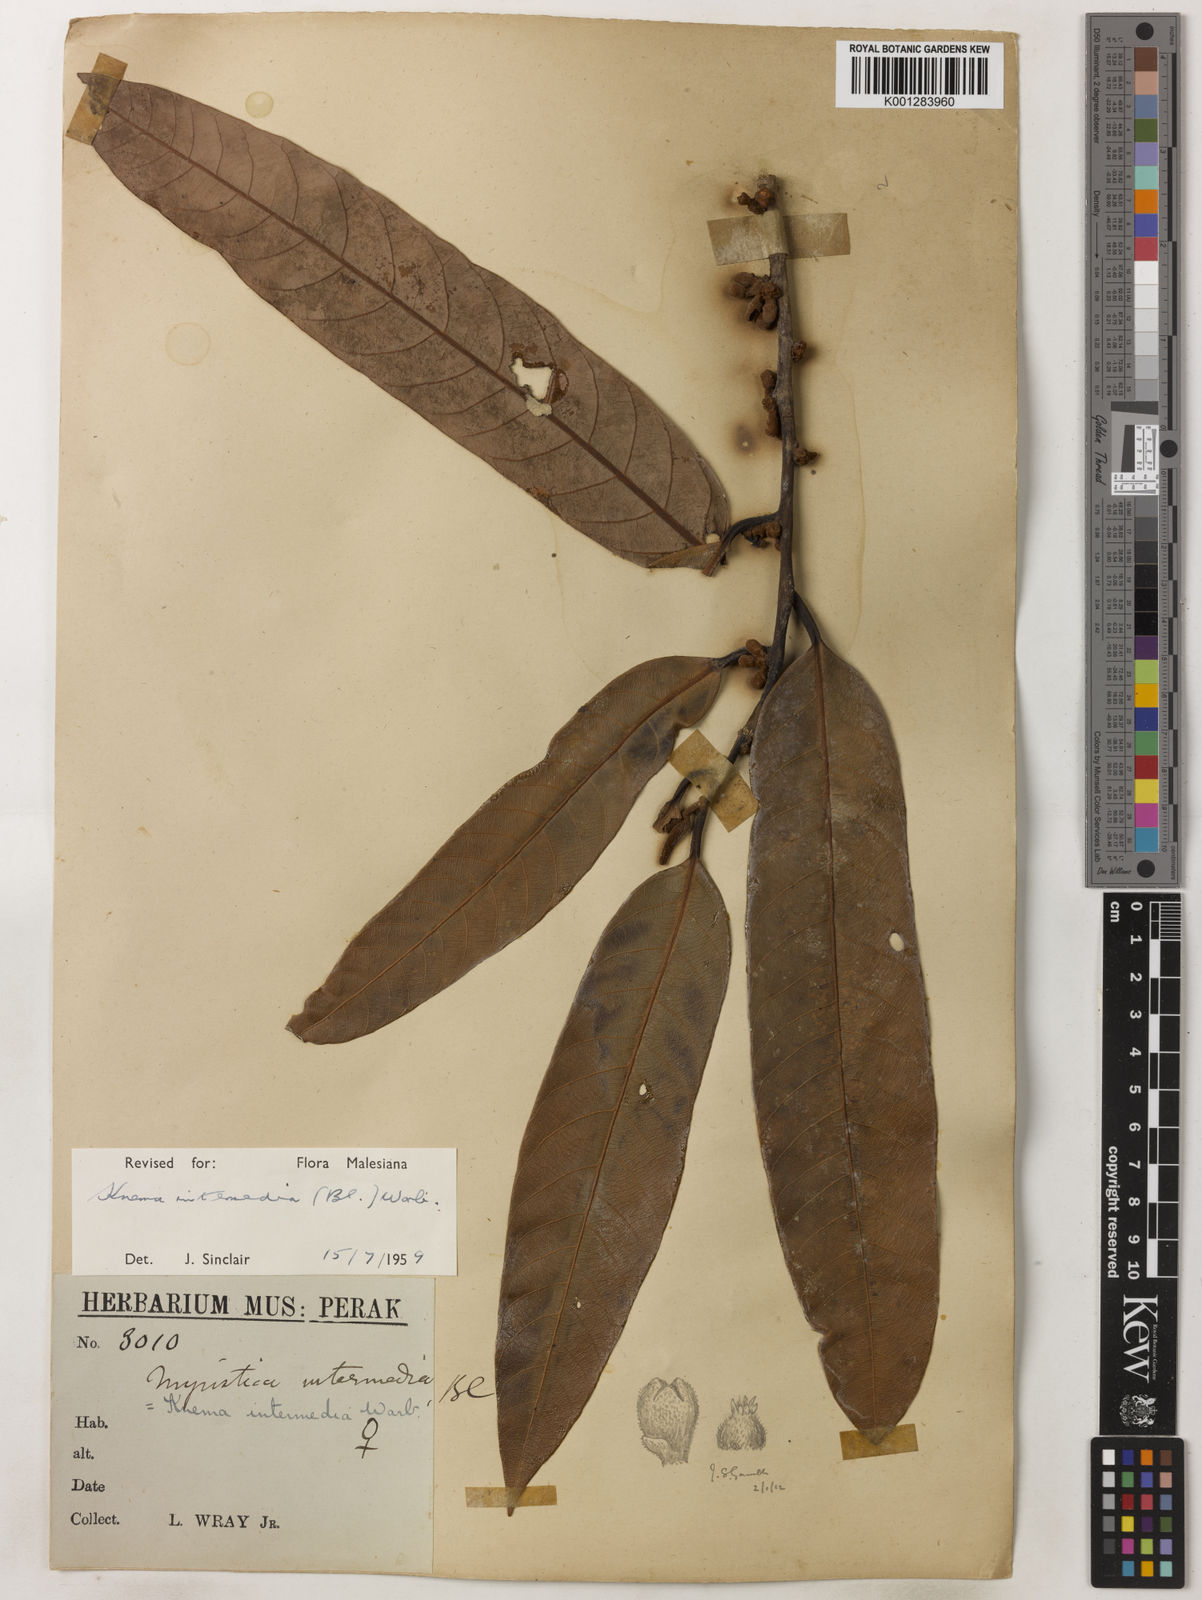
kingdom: Plantae
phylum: Tracheophyta
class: Magnoliopsida
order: Magnoliales
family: Myristicaceae
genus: Knema
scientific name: Knema intermedia
